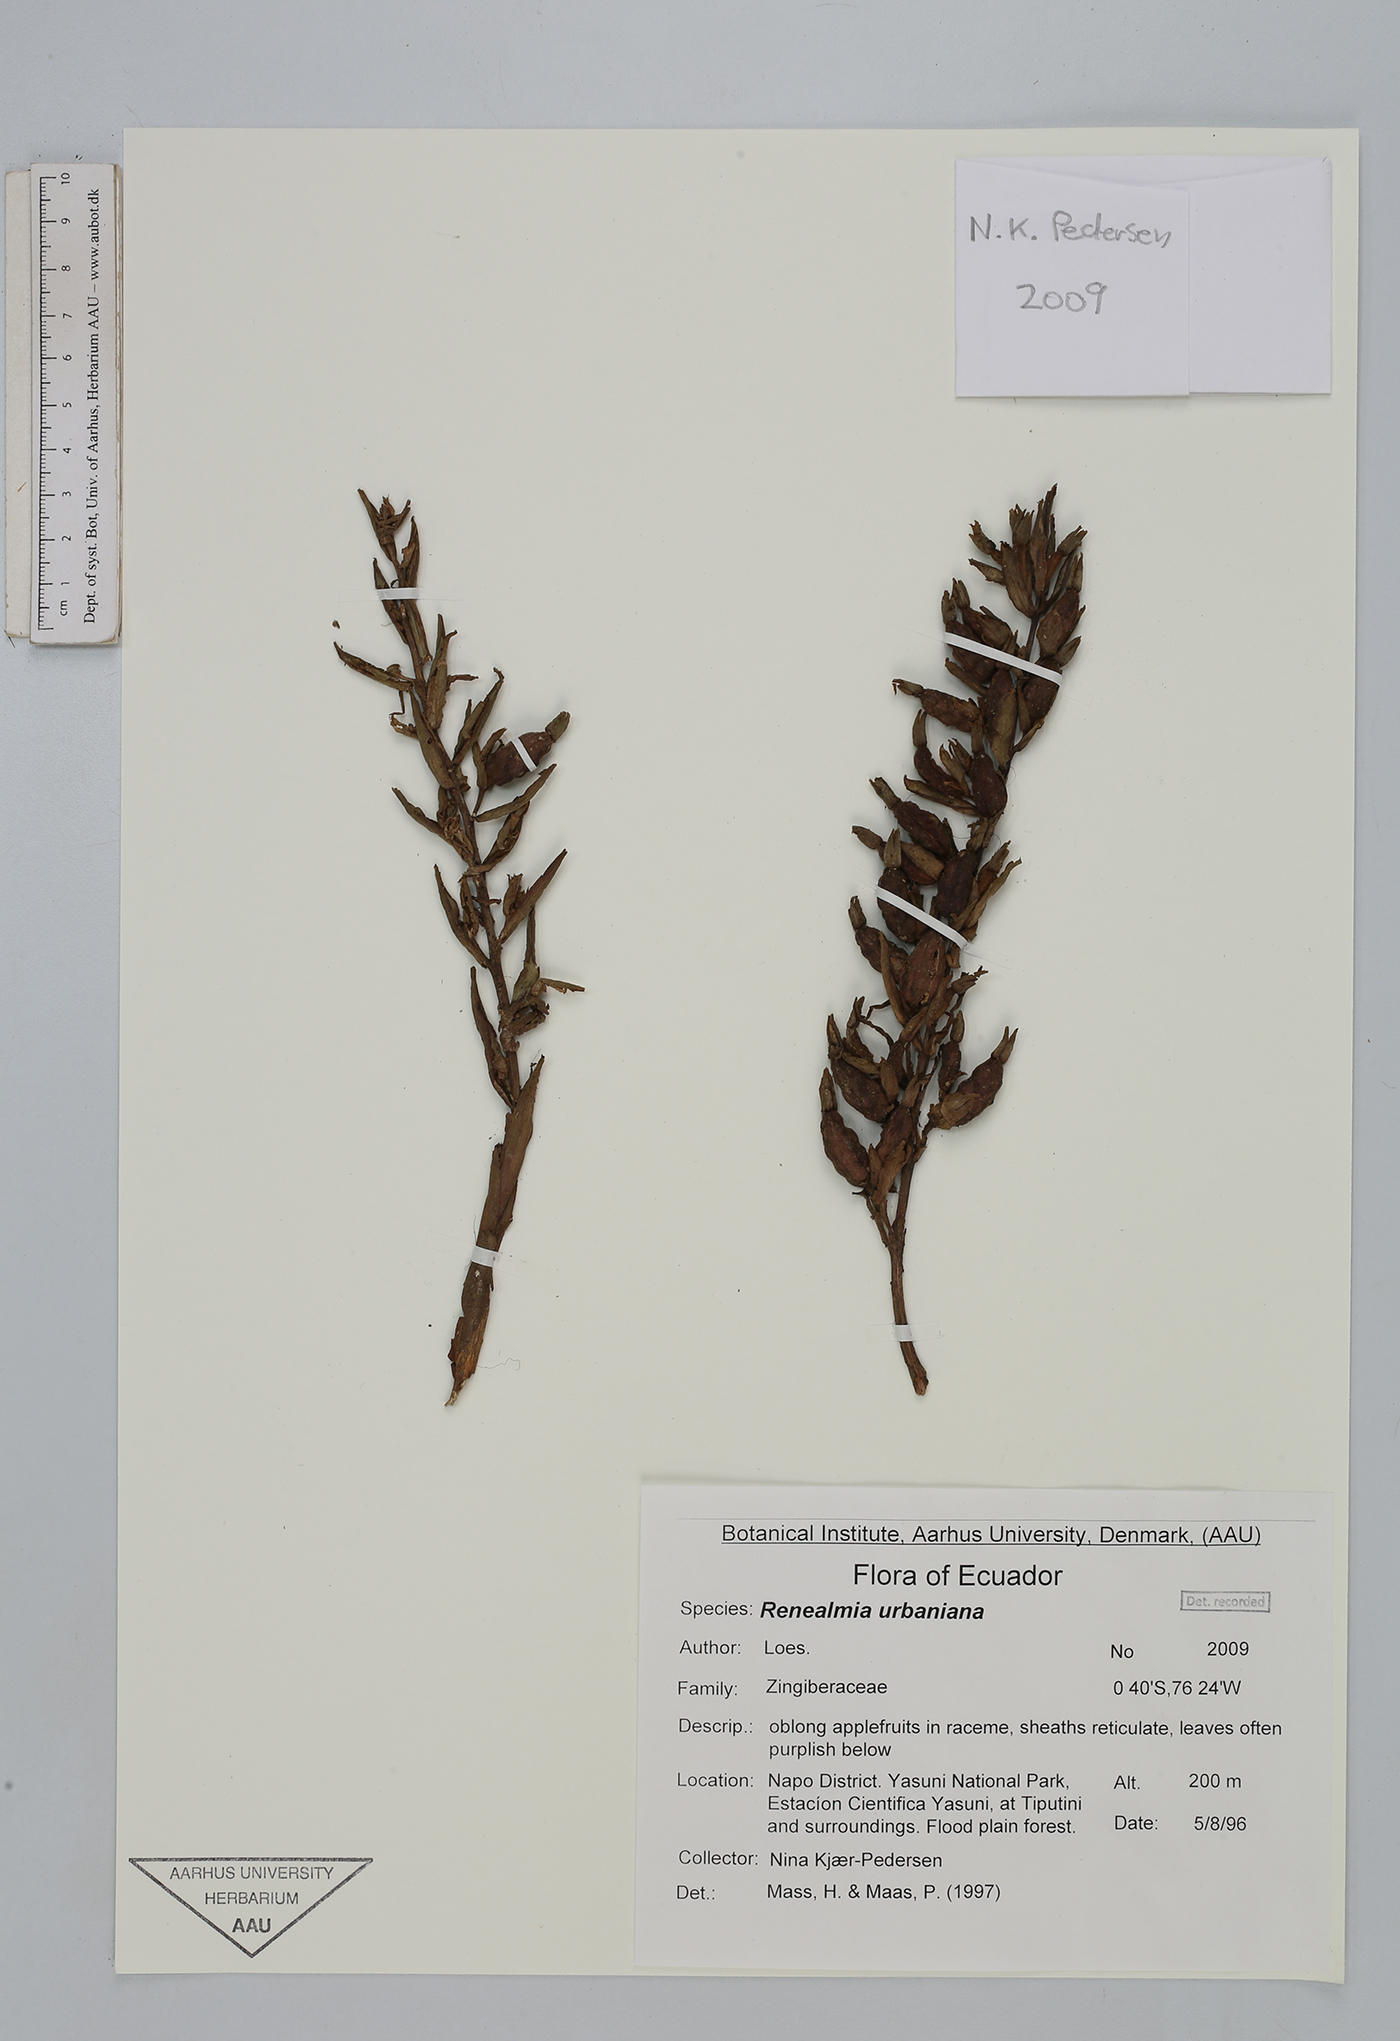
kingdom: Plantae
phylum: Tracheophyta
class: Liliopsida
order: Zingiberales
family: Zingiberaceae
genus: Renealmia
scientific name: Renealmia urbaniana
